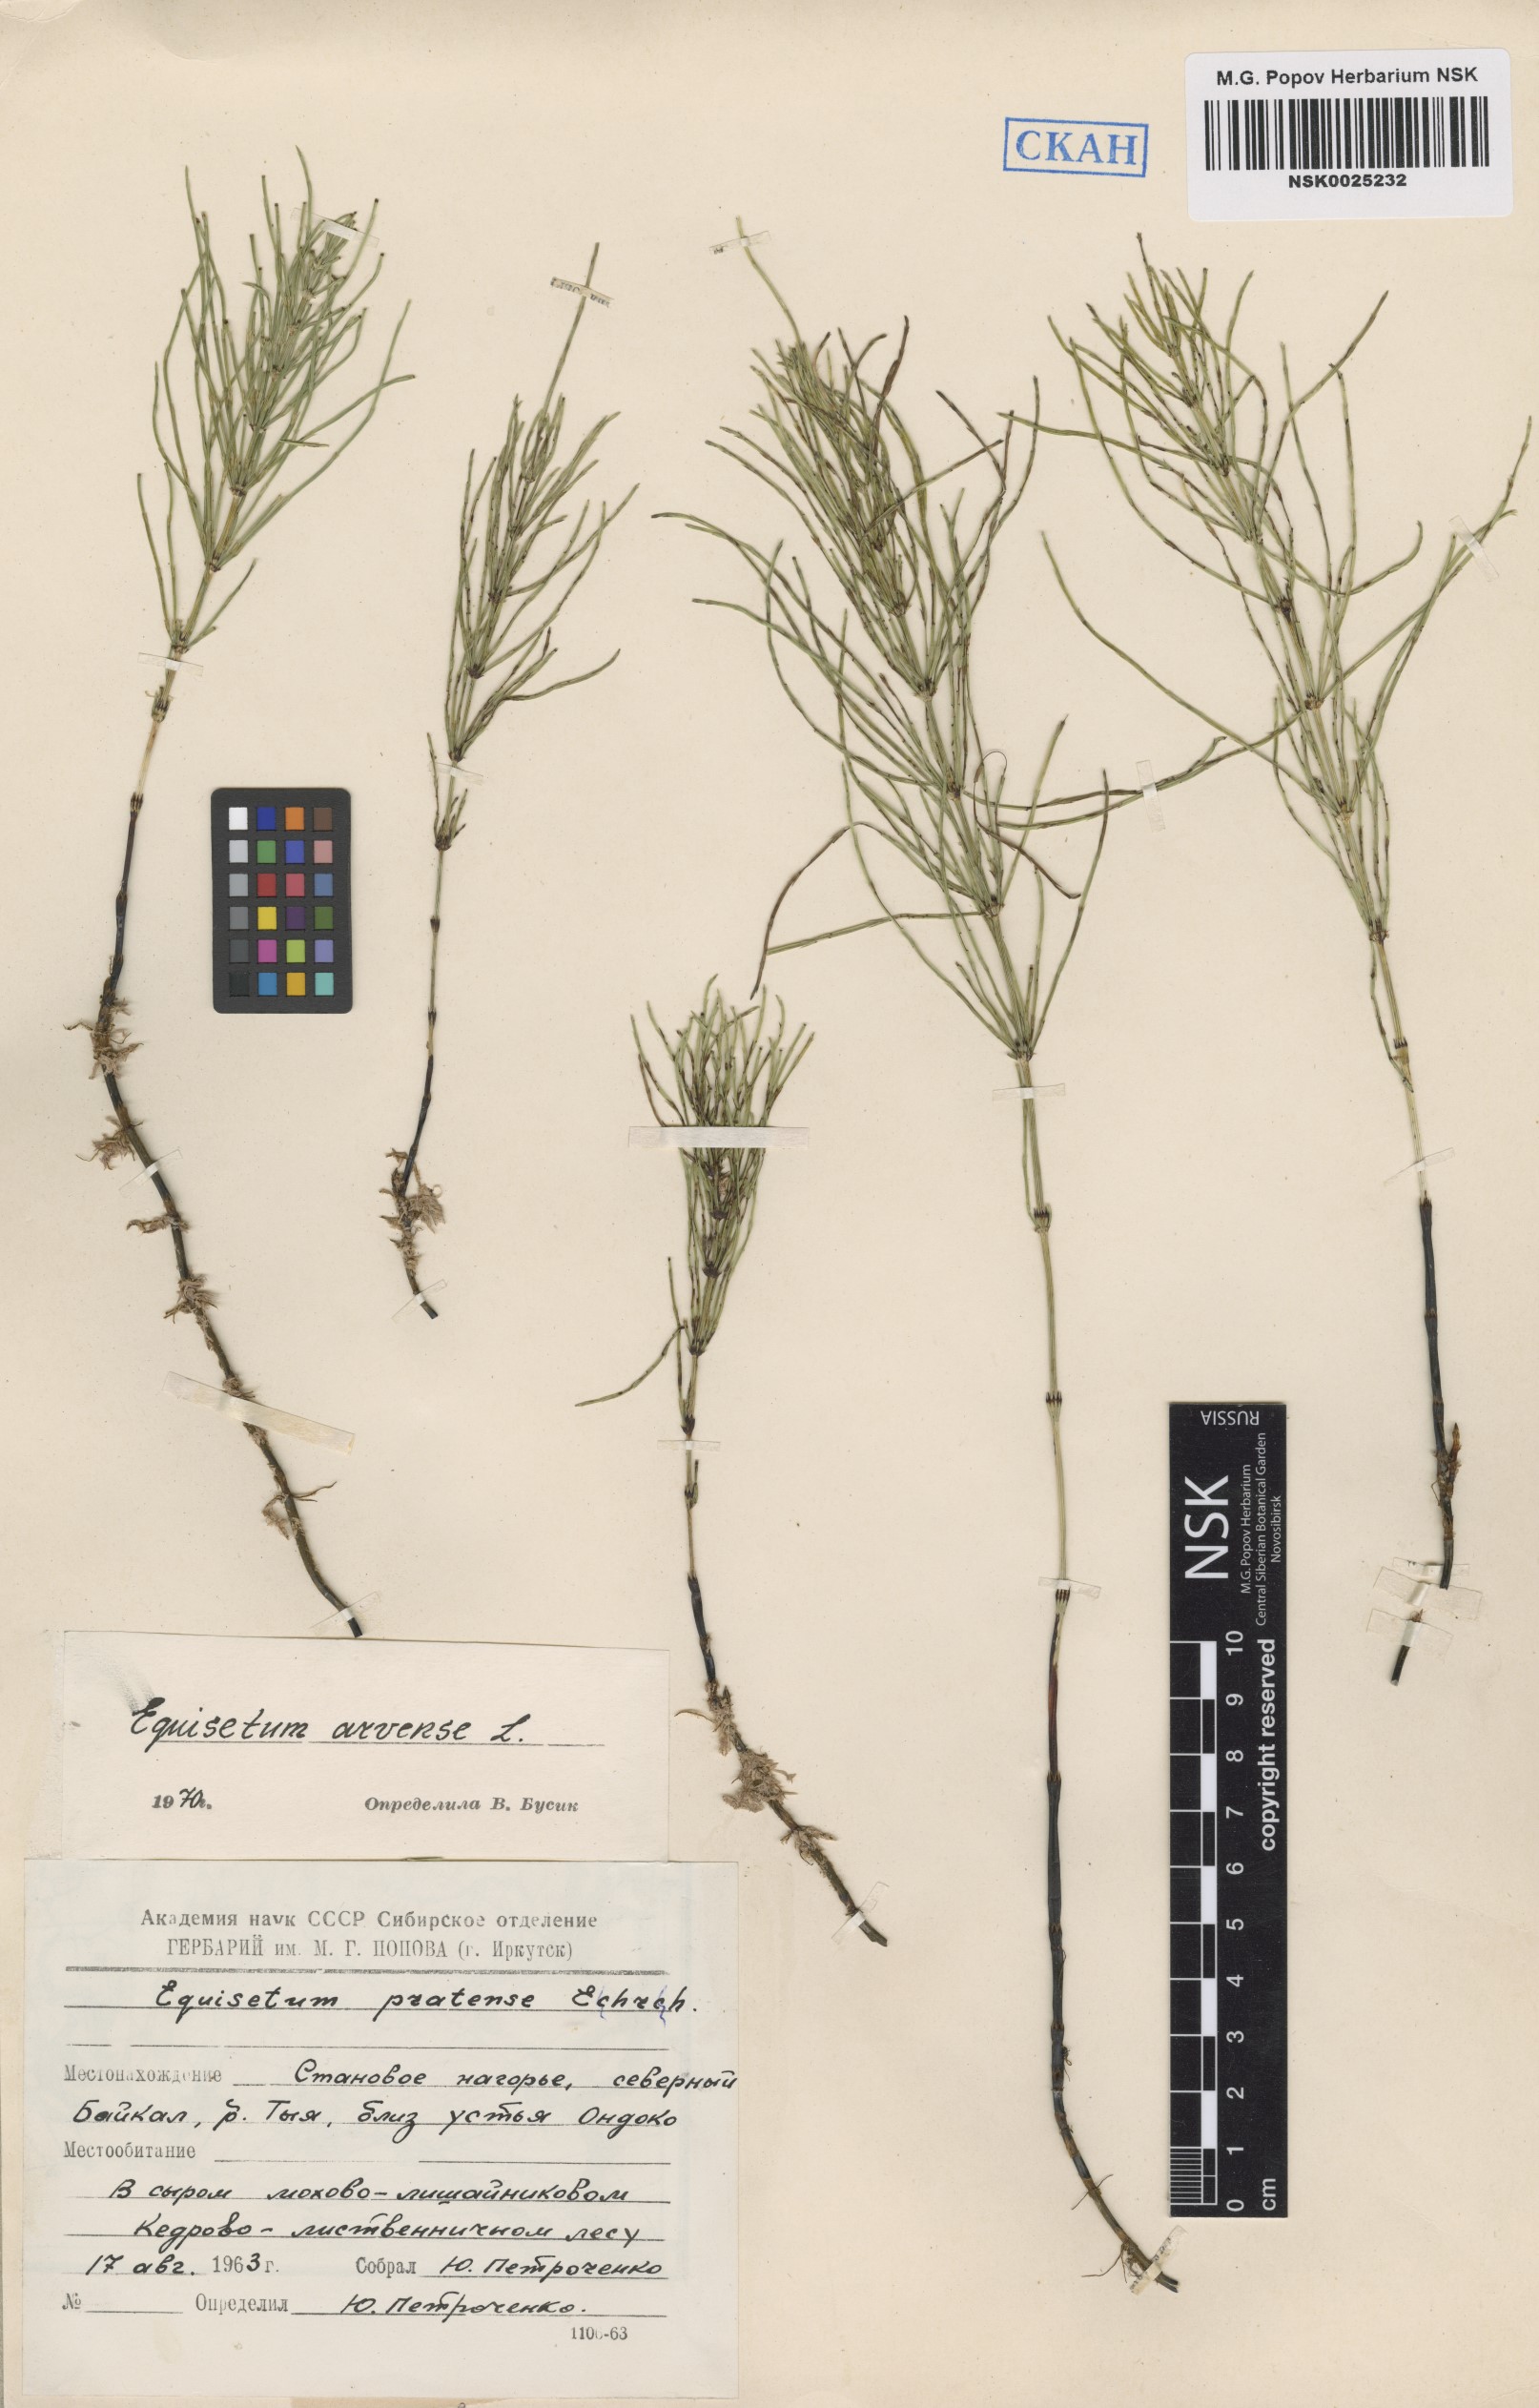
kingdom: Plantae
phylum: Tracheophyta
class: Polypodiopsida
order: Equisetales
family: Equisetaceae
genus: Equisetum
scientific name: Equisetum arvense
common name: Field horsetail
